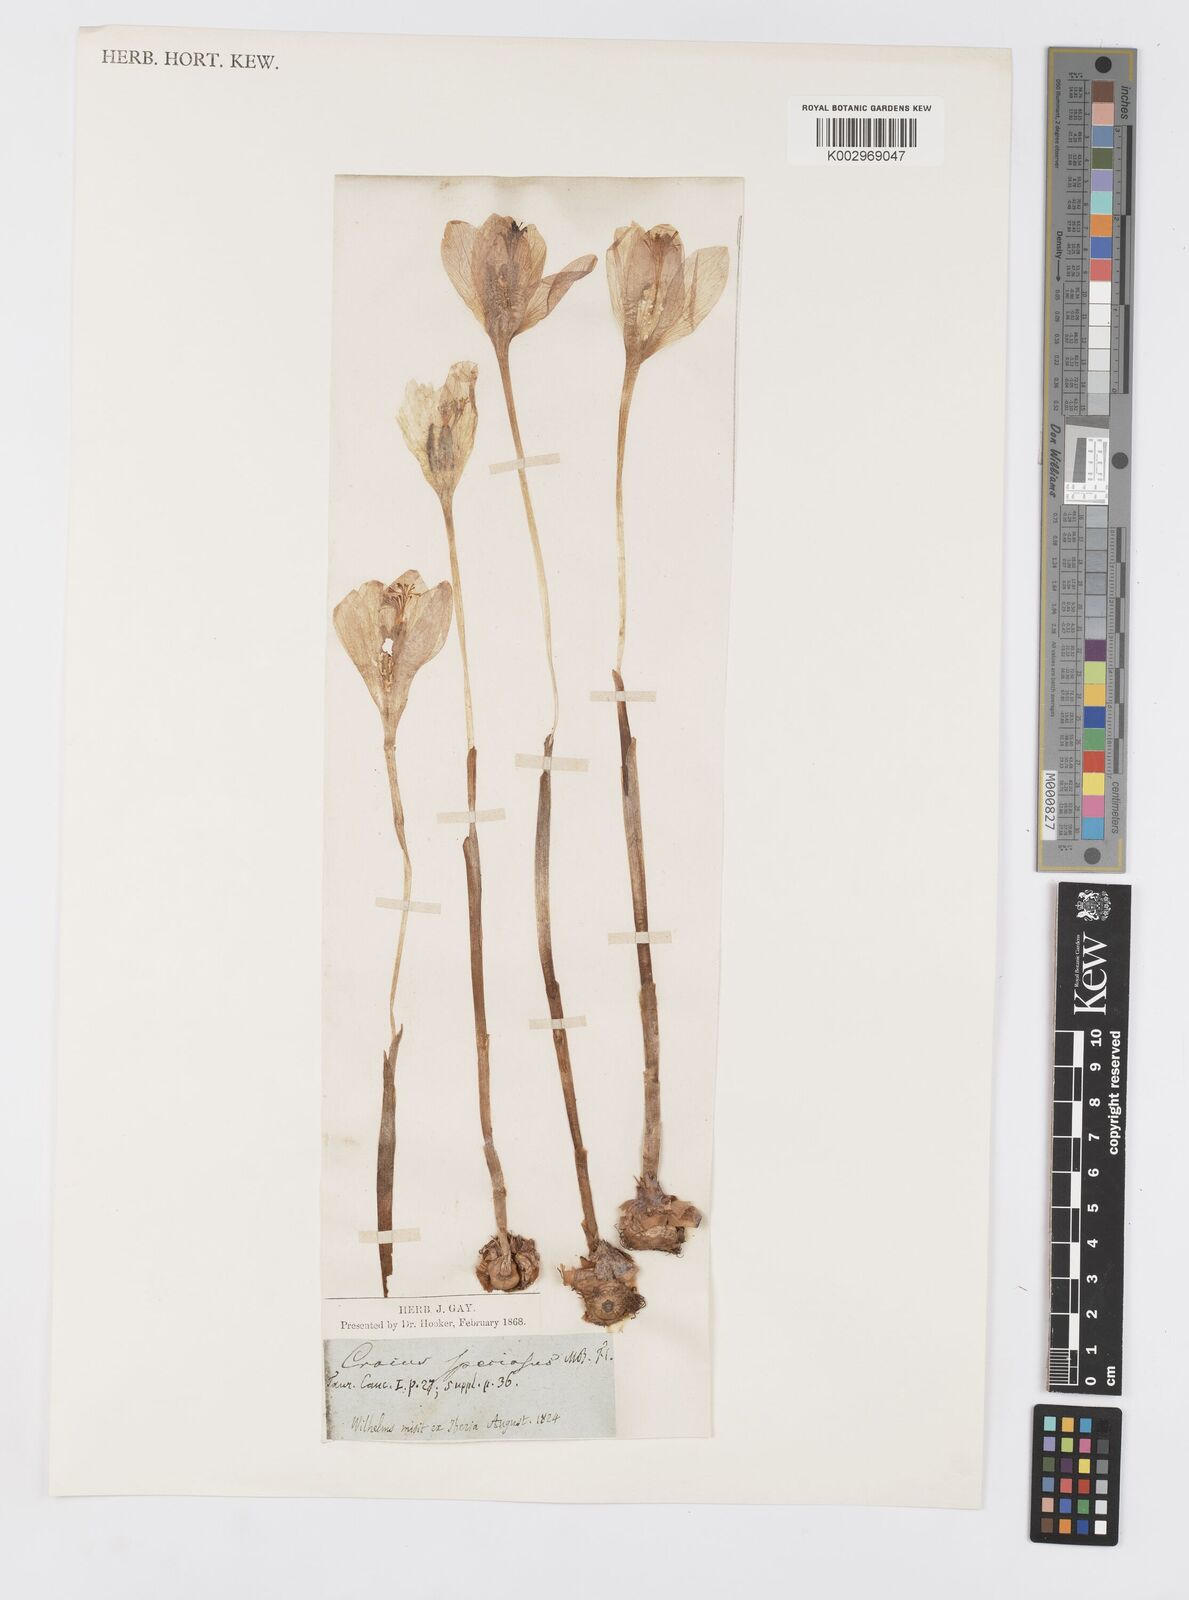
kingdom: Plantae
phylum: Tracheophyta
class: Liliopsida
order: Asparagales
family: Iridaceae
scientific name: Iridaceae
